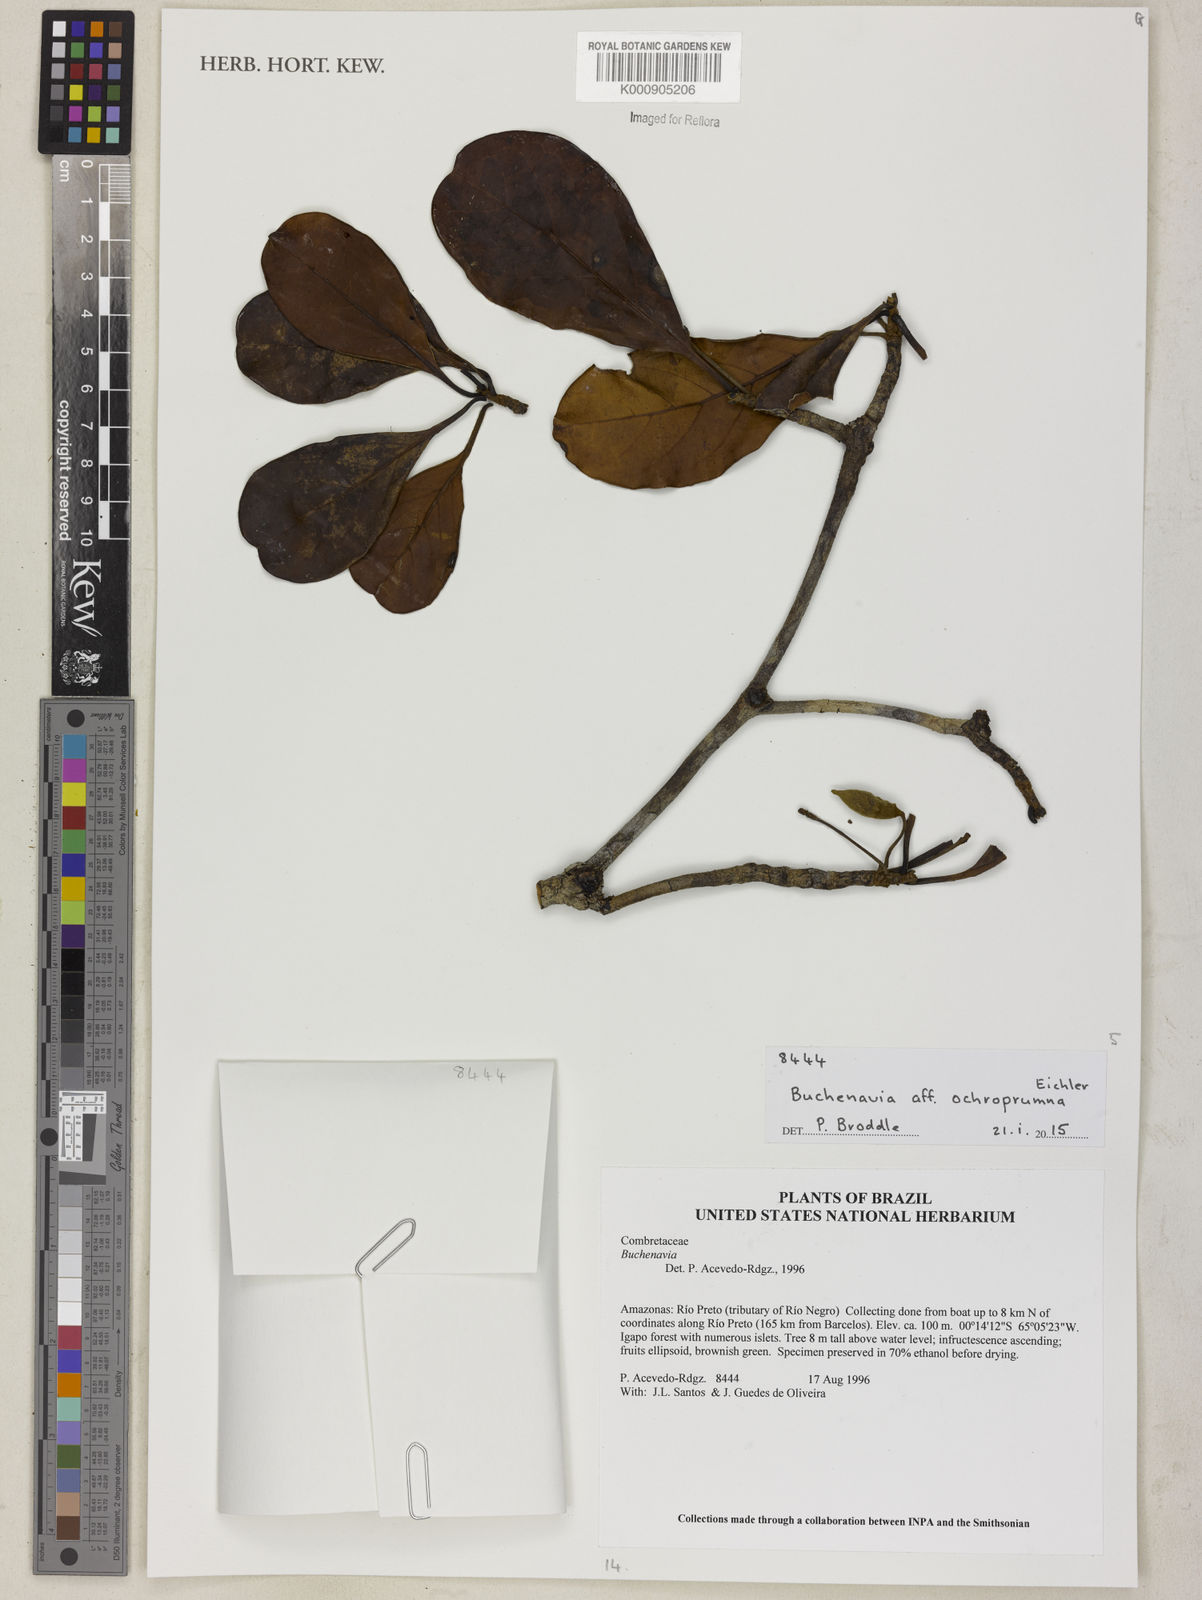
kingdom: Plantae
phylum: Tracheophyta
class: Magnoliopsida
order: Myrtales
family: Combretaceae
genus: Terminalia
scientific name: Terminalia ochroprumna
